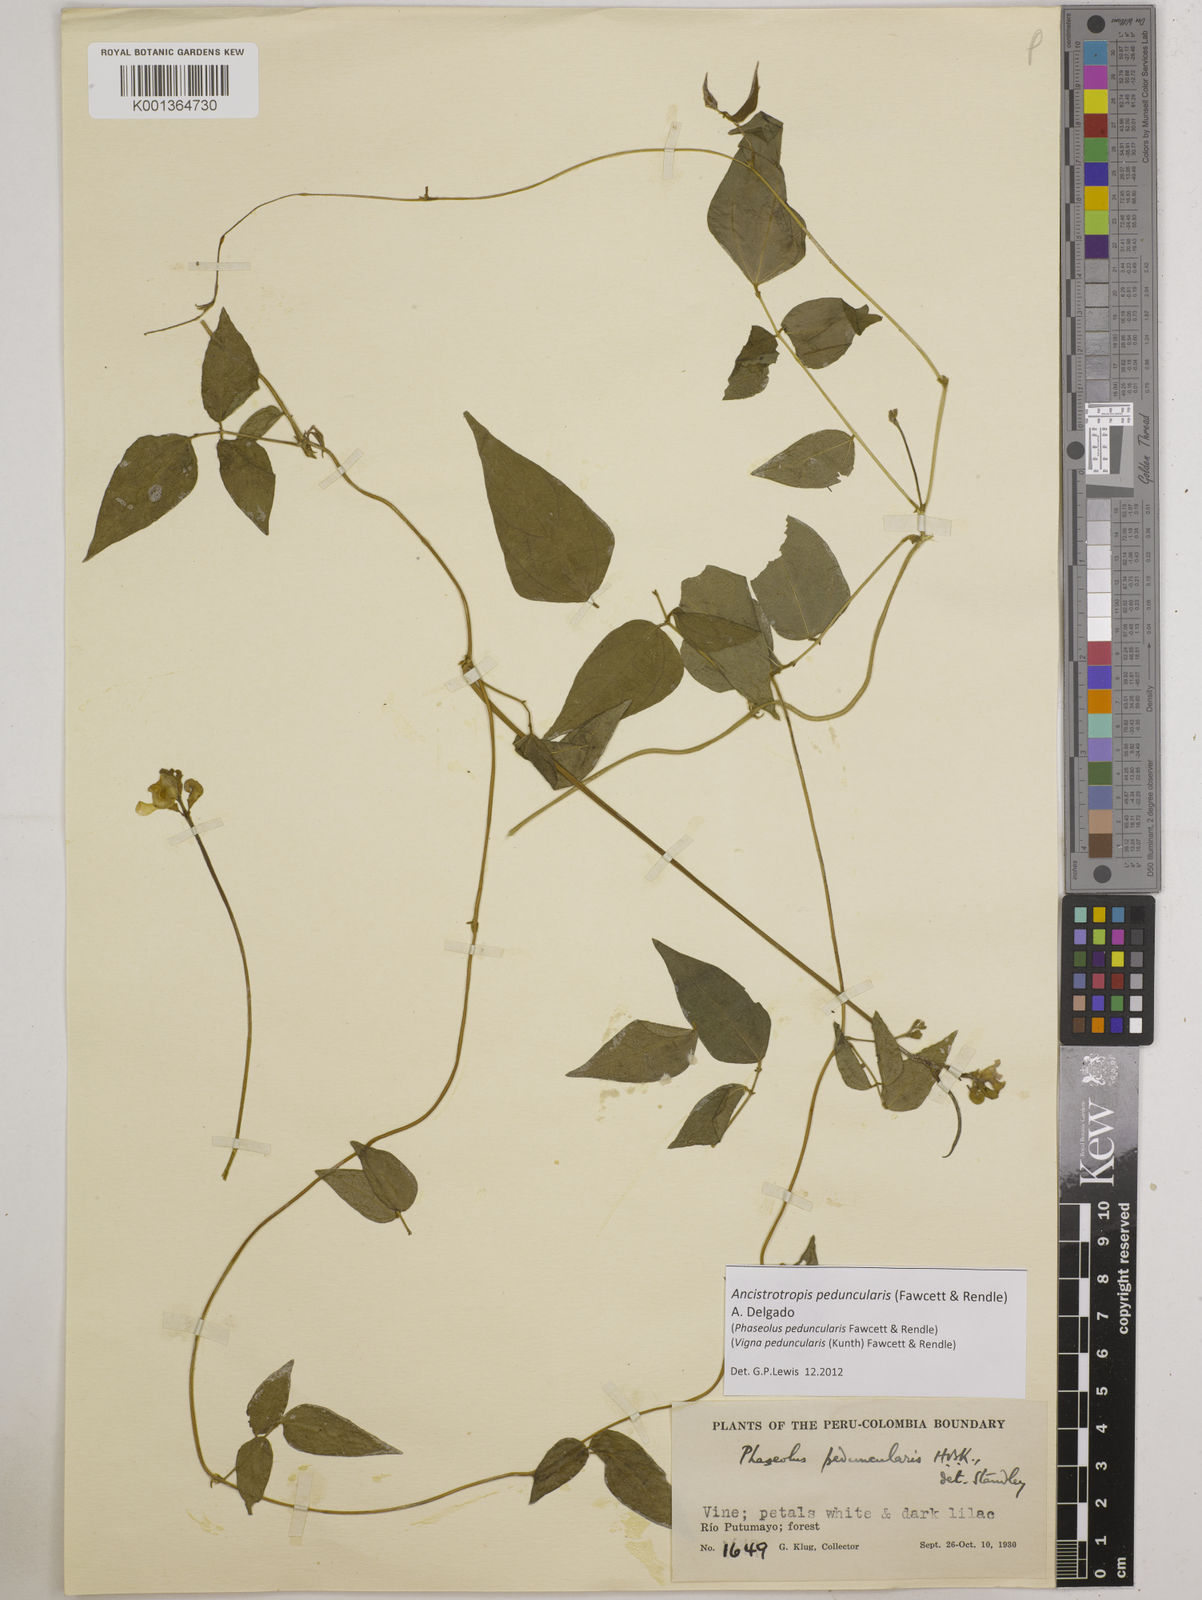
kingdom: Plantae
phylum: Tracheophyta
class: Magnoliopsida
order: Fabales
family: Fabaceae
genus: Ancistrotropis
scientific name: Ancistrotropis peduncularis
